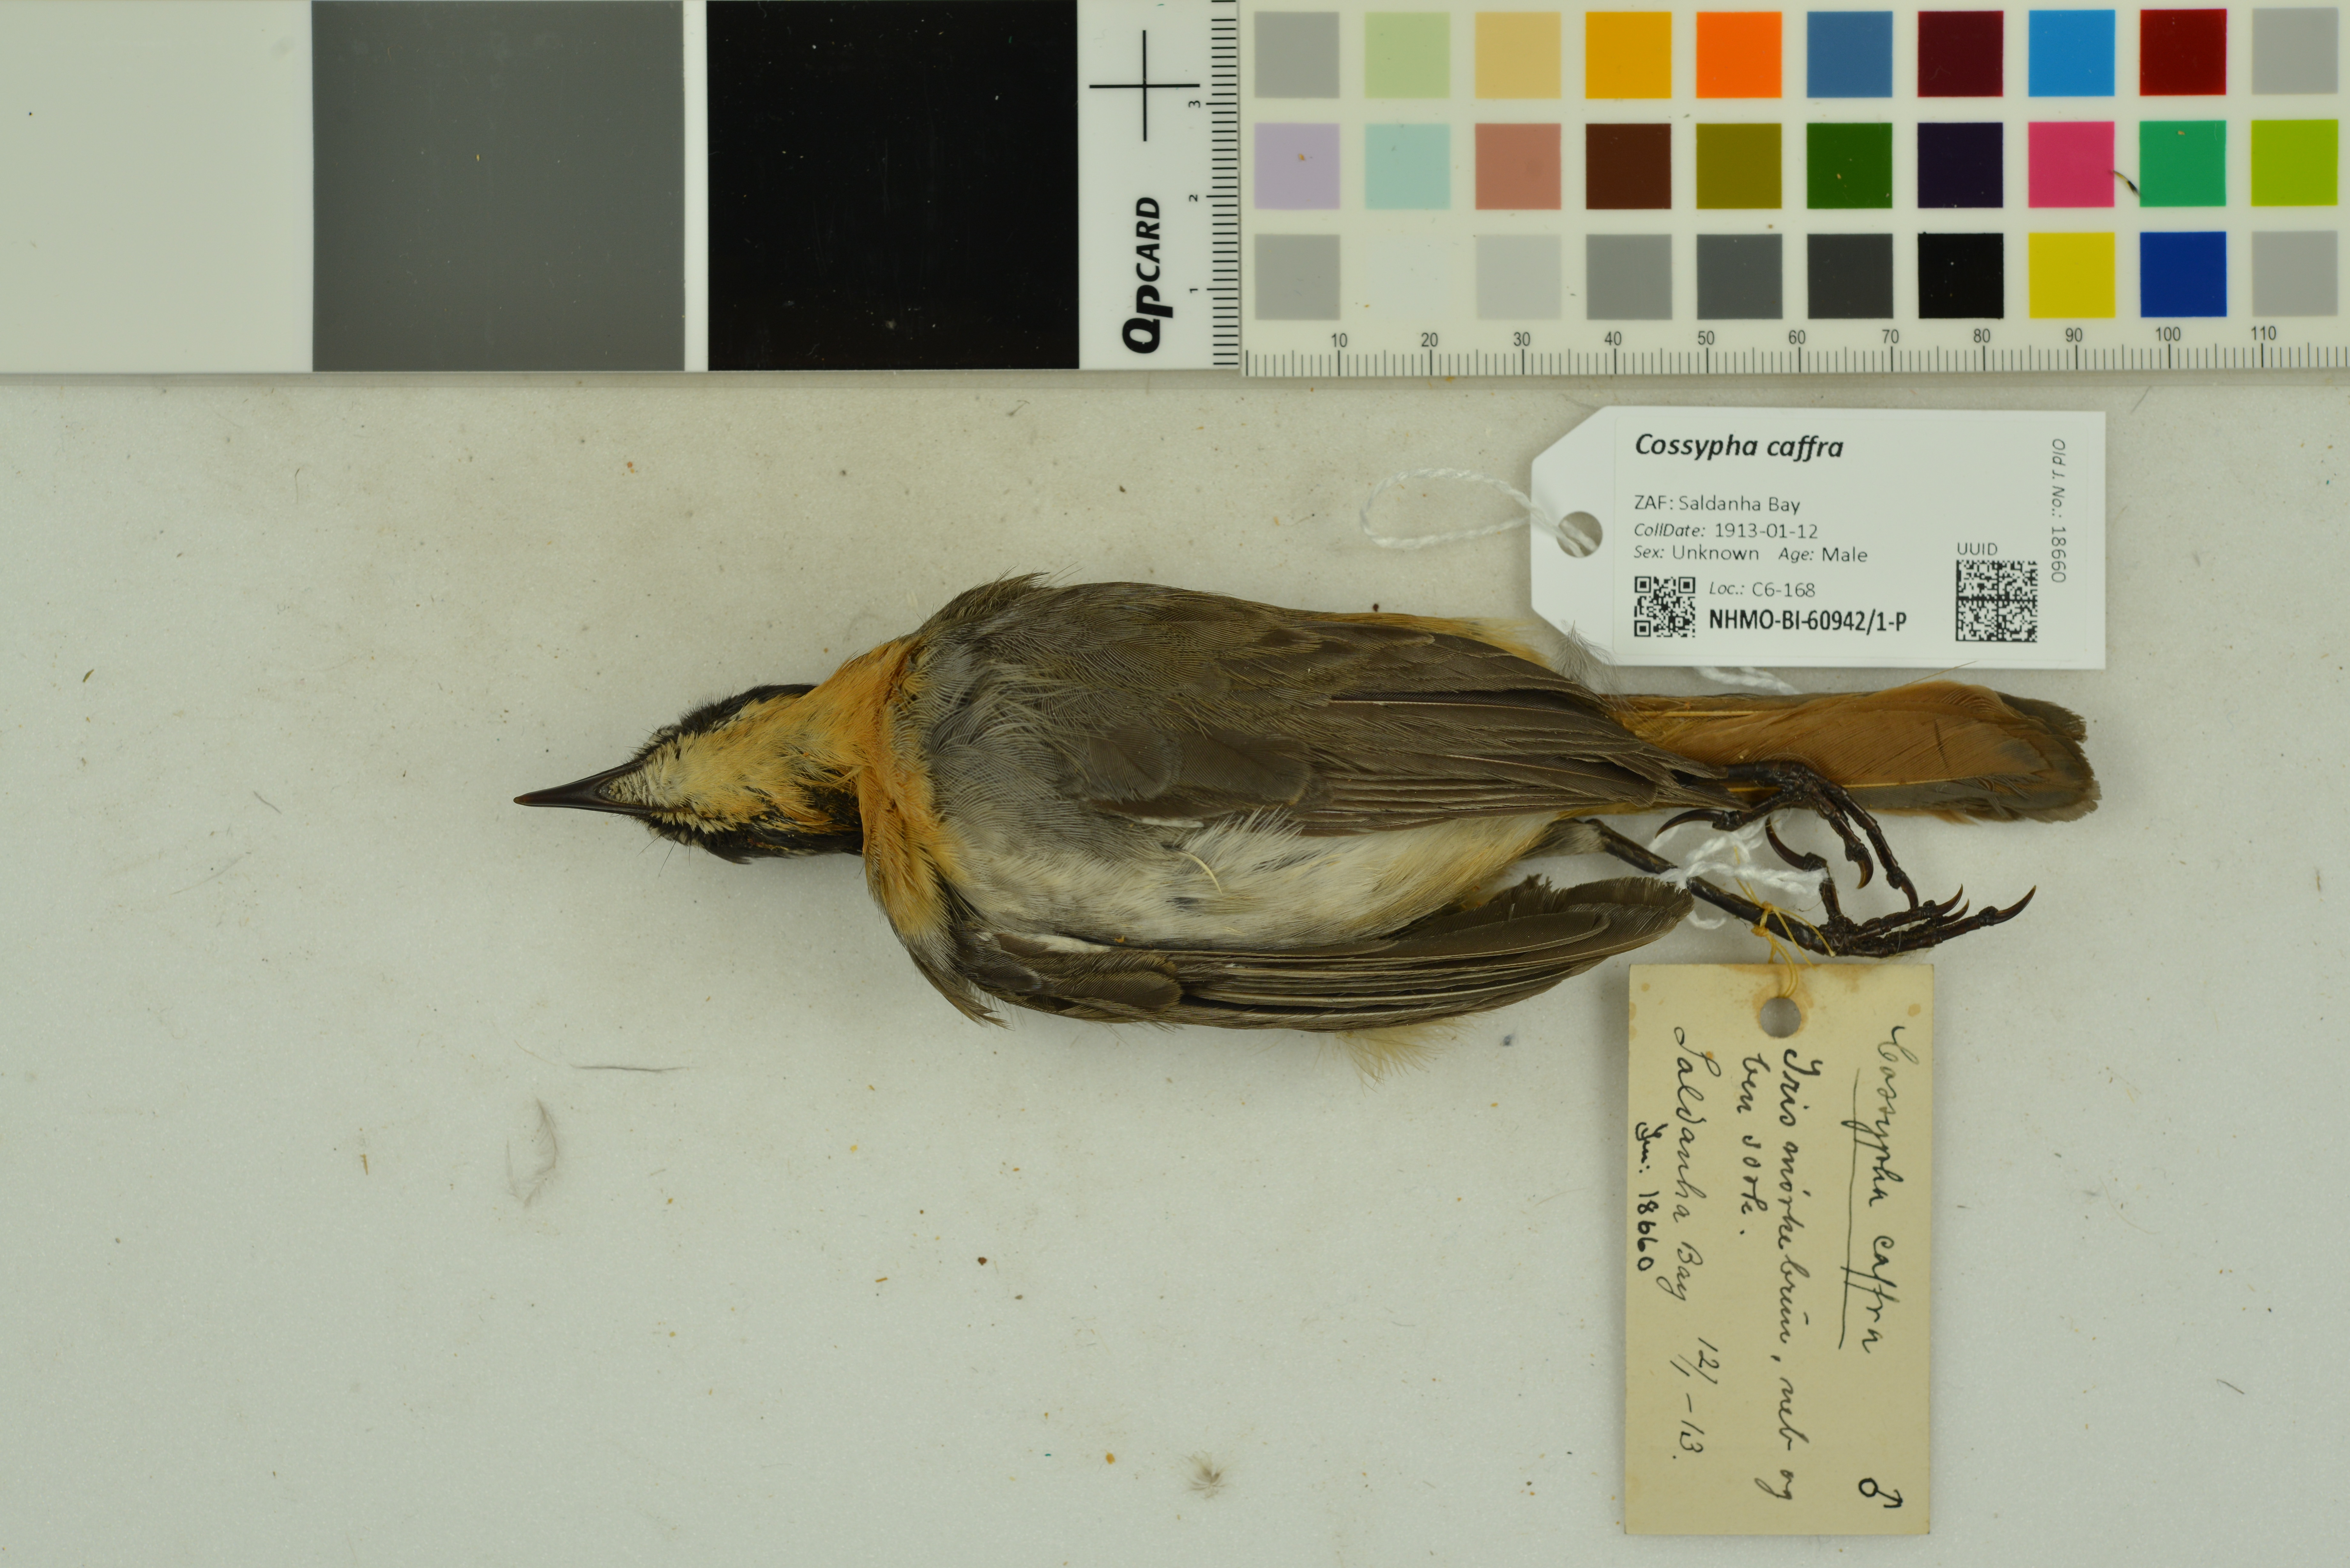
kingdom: Animalia
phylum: Chordata
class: Aves
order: Passeriformes
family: Muscicapidae
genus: Cossypha
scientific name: Cossypha caffra
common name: Cape robin-chat
